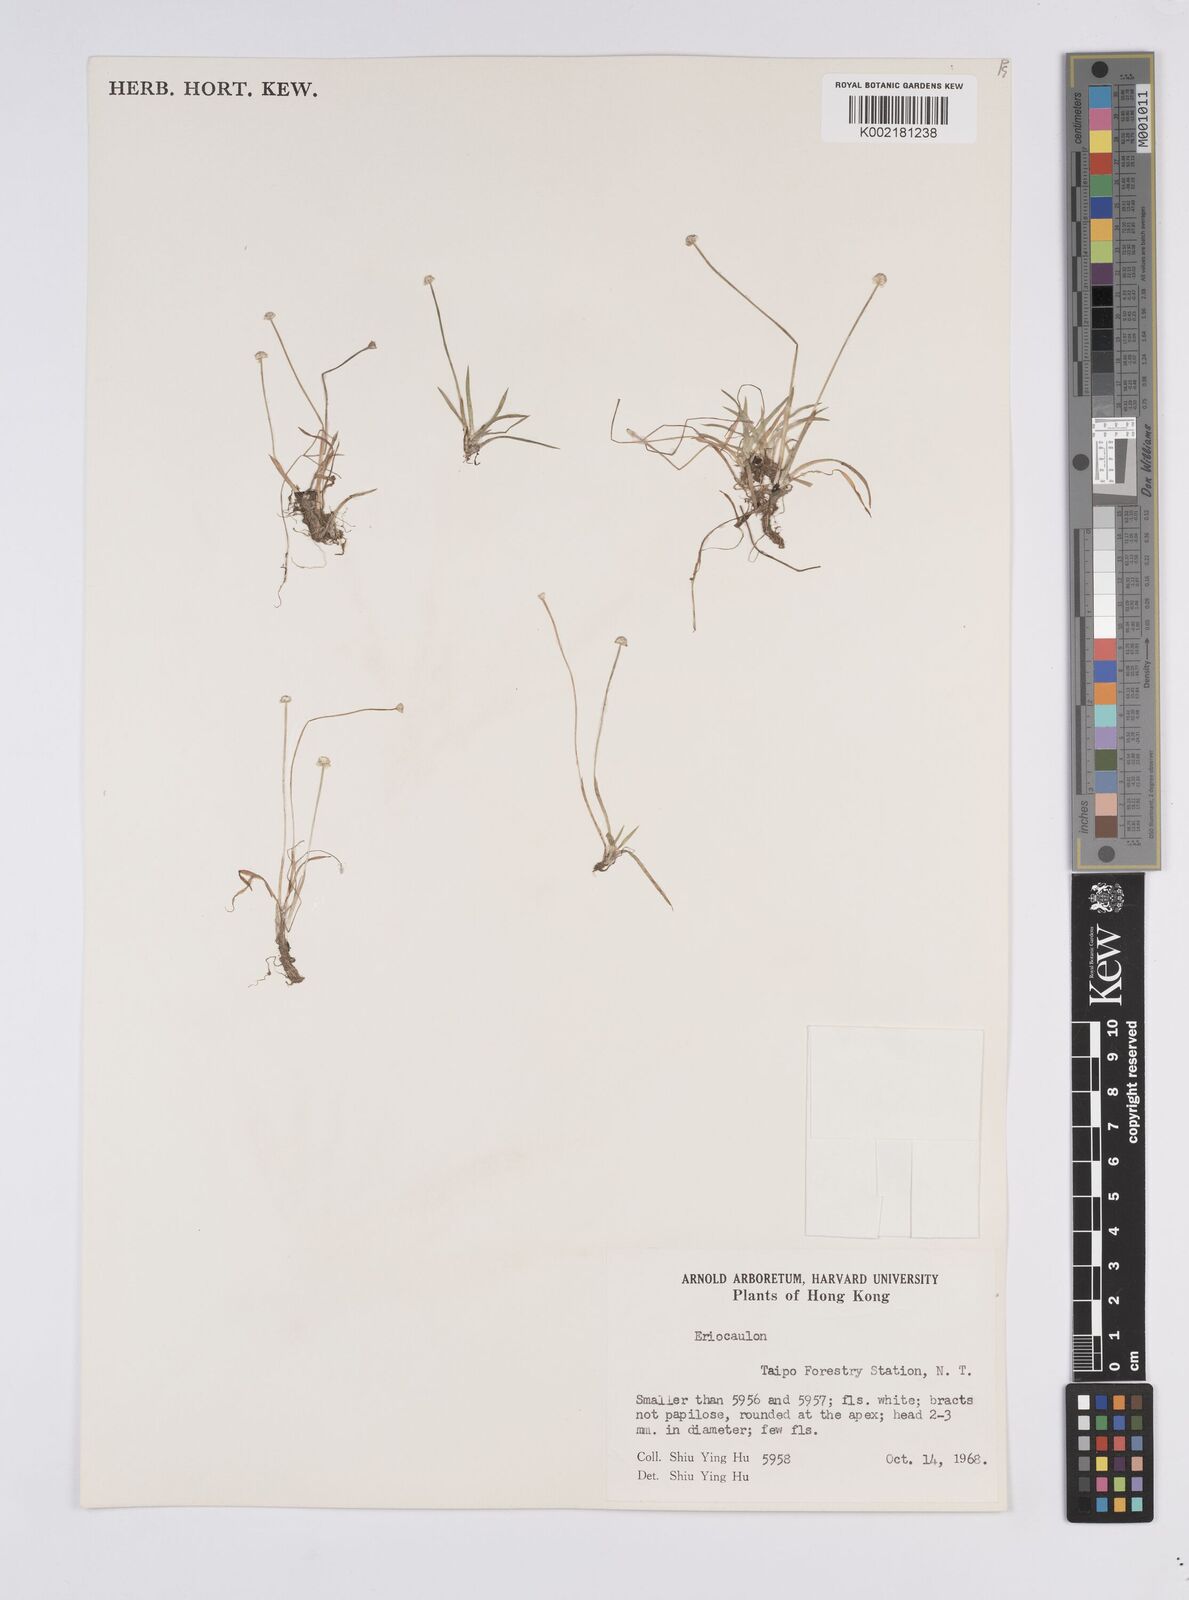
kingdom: Plantae
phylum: Tracheophyta
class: Liliopsida
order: Poales
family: Eriocaulaceae
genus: Eriocaulon
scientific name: Eriocaulon
